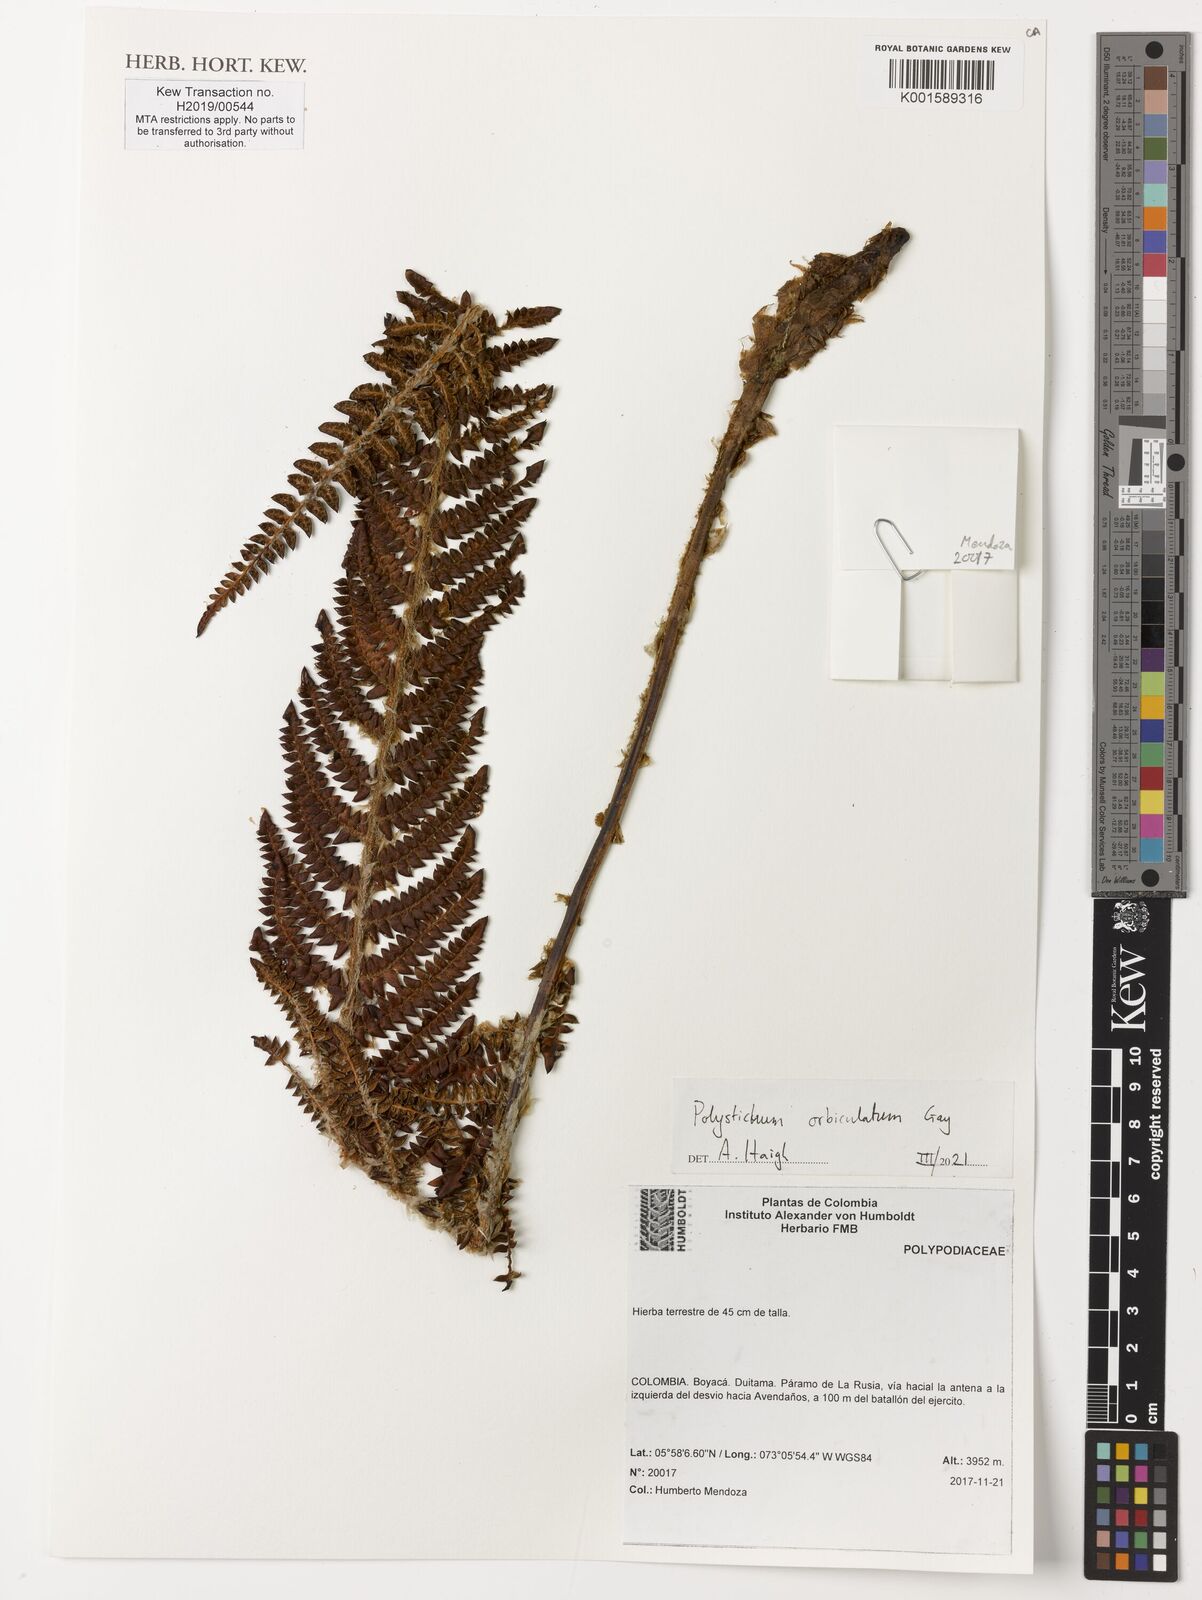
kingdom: Plantae
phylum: Tracheophyta
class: Polypodiopsida
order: Polypodiales
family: Dryopteridaceae
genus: Polystichum
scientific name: Polystichum orbiculatum
